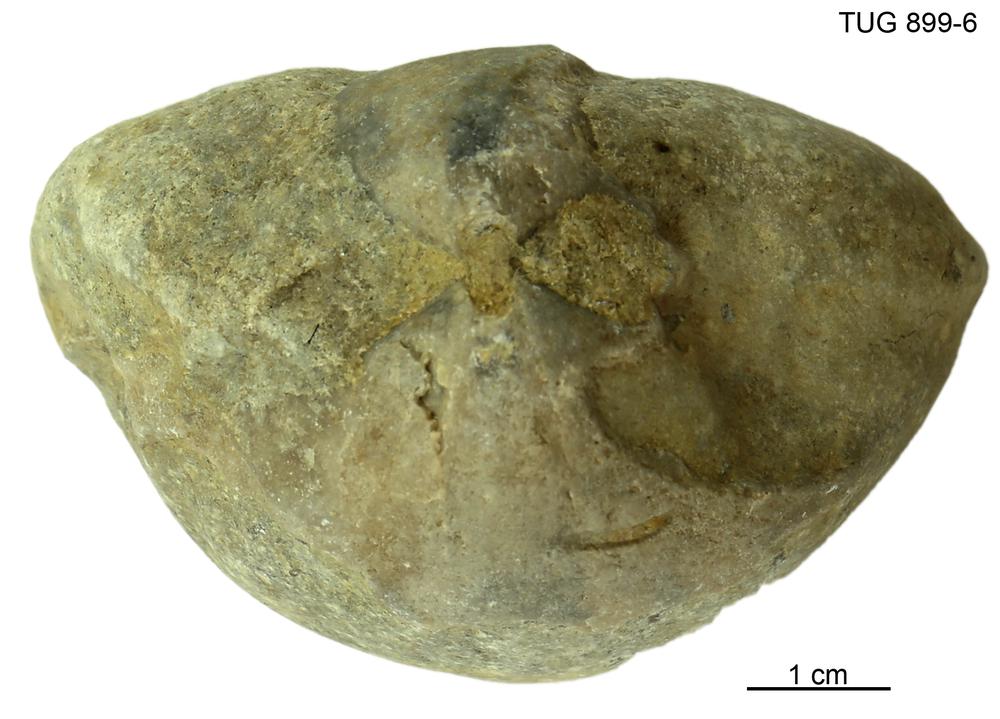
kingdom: Animalia
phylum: Brachiopoda
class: Rhynchonellata
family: Porambonitidae
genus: Porambonites
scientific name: Porambonites
